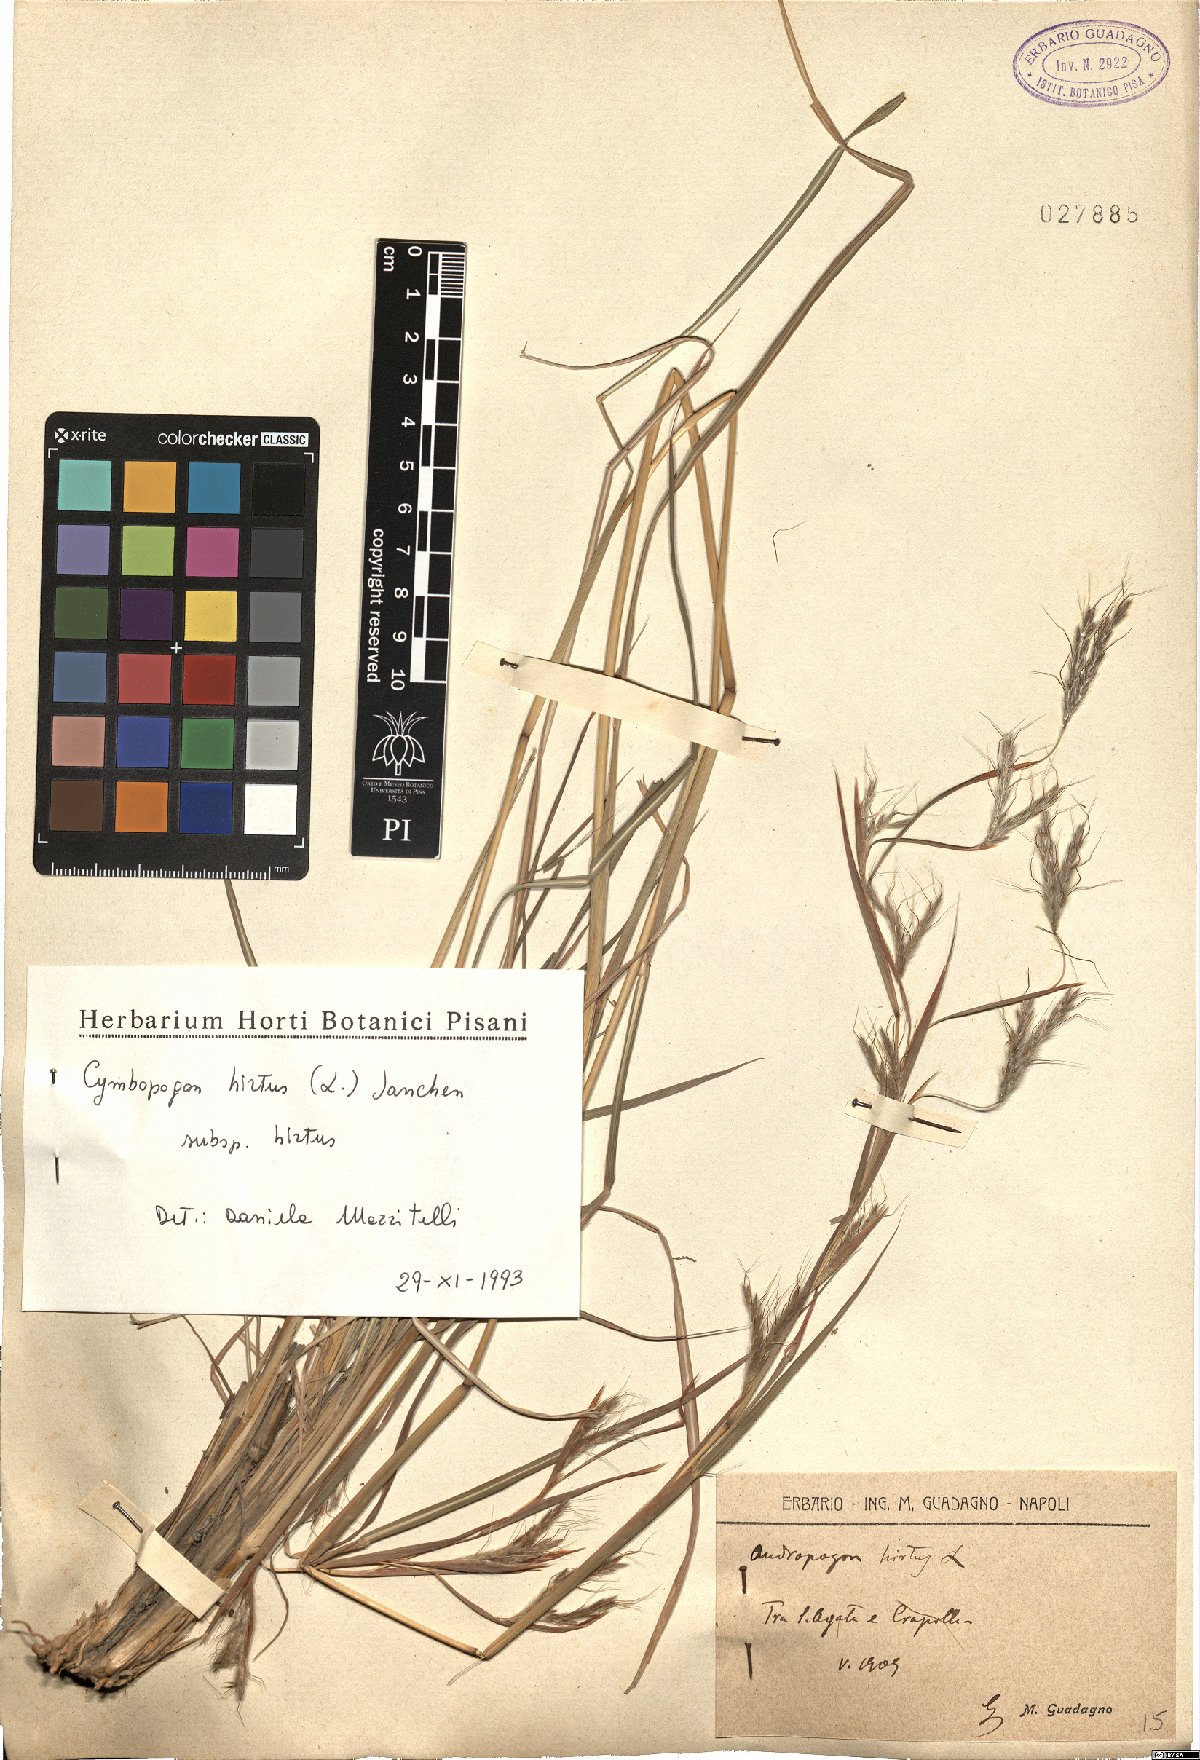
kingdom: Plantae
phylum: Tracheophyta
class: Liliopsida
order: Poales
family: Poaceae
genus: Cymbopogon
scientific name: Cymbopogon hirtus
